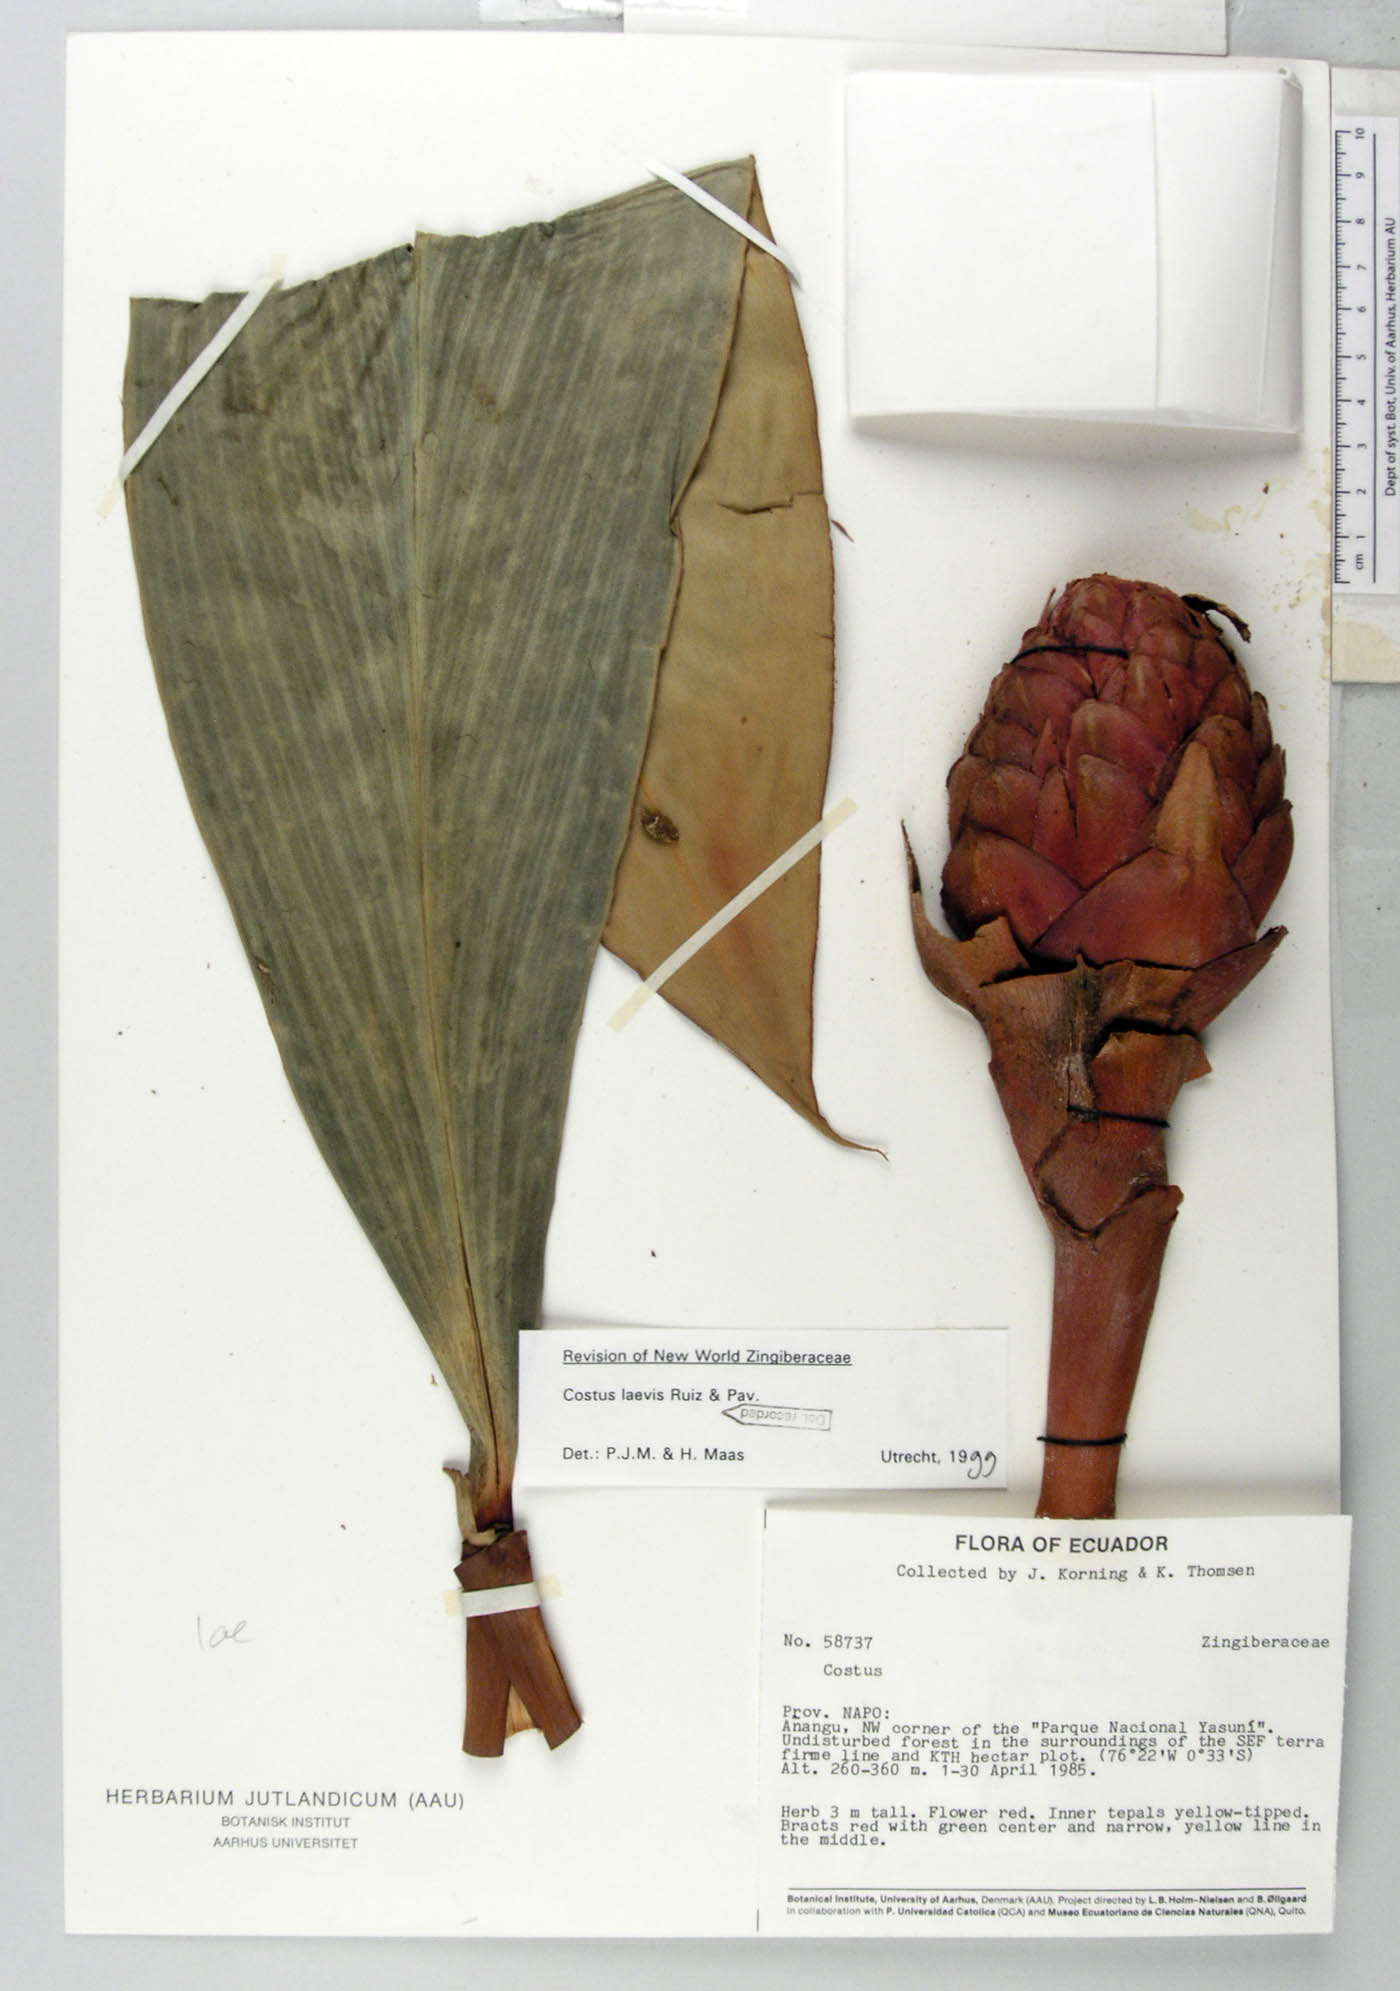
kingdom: Plantae
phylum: Tracheophyta
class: Liliopsida
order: Zingiberales
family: Costaceae
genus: Costus
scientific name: Costus laevis
